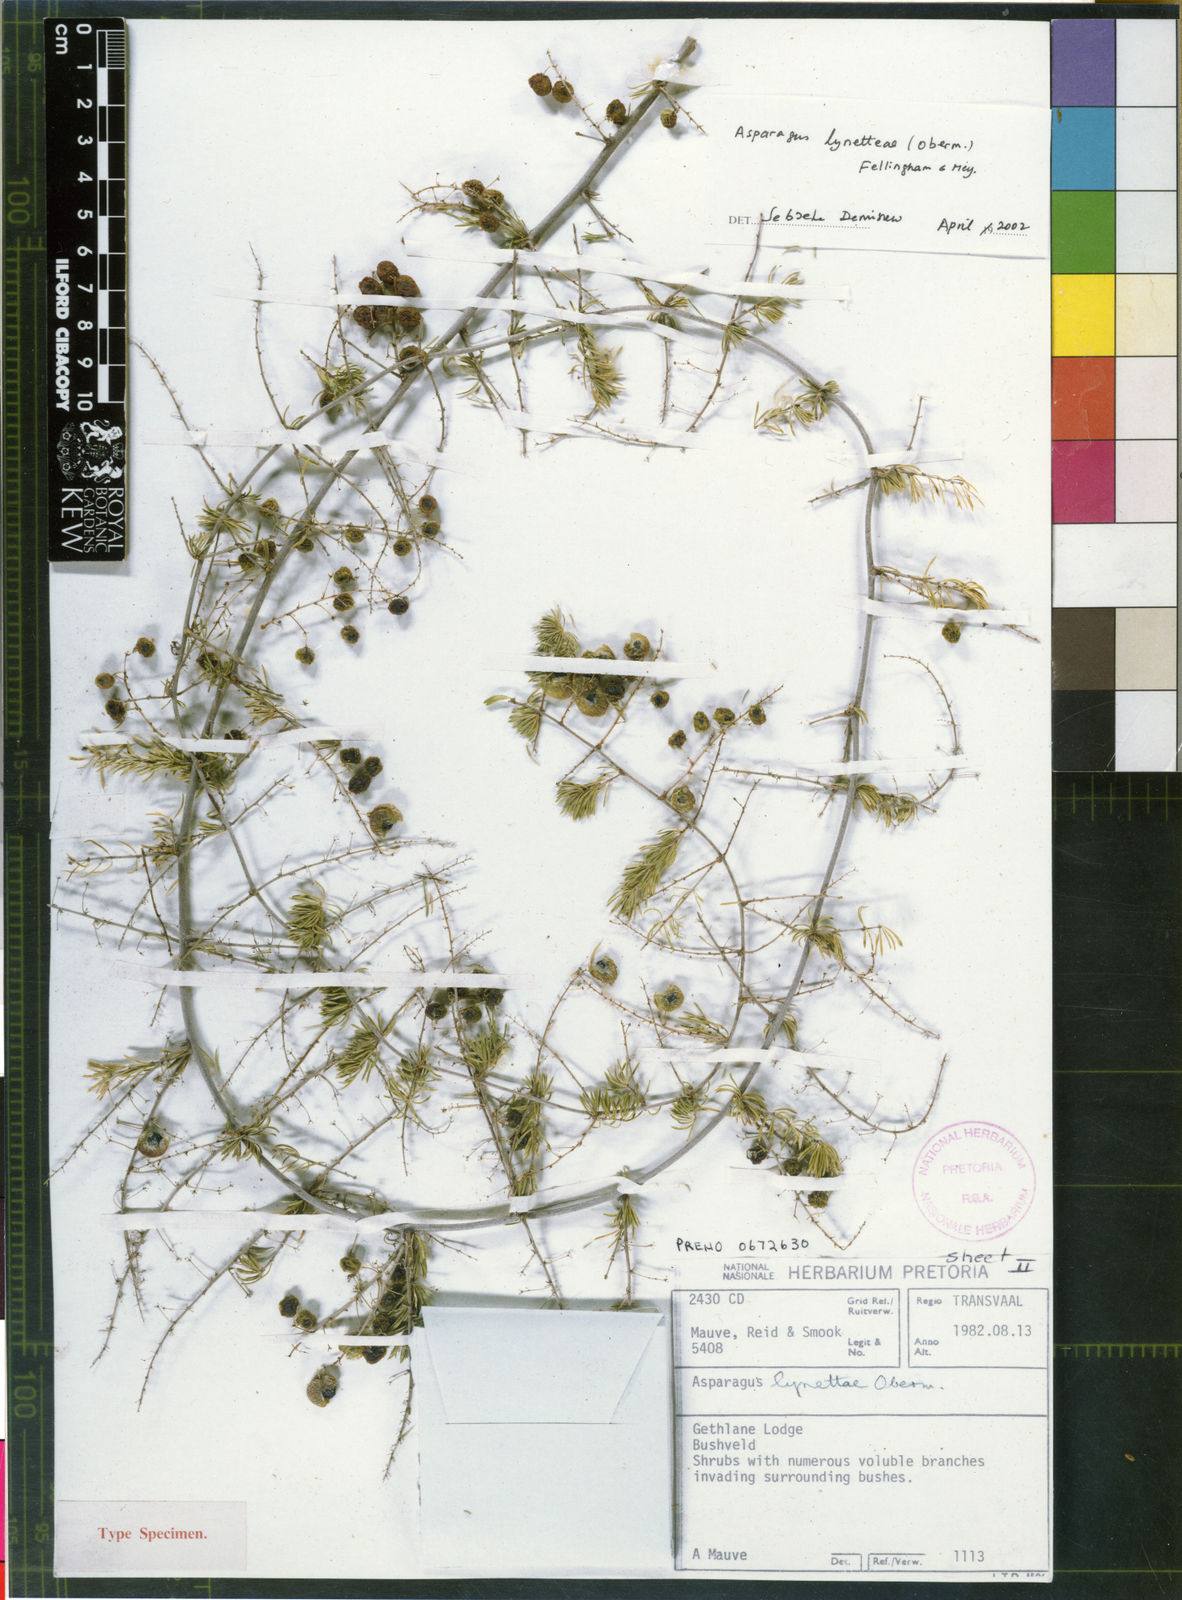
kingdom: Plantae
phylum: Tracheophyta
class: Liliopsida
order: Asparagales
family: Asparagaceae
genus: Asparagus
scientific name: Asparagus lynetteae
